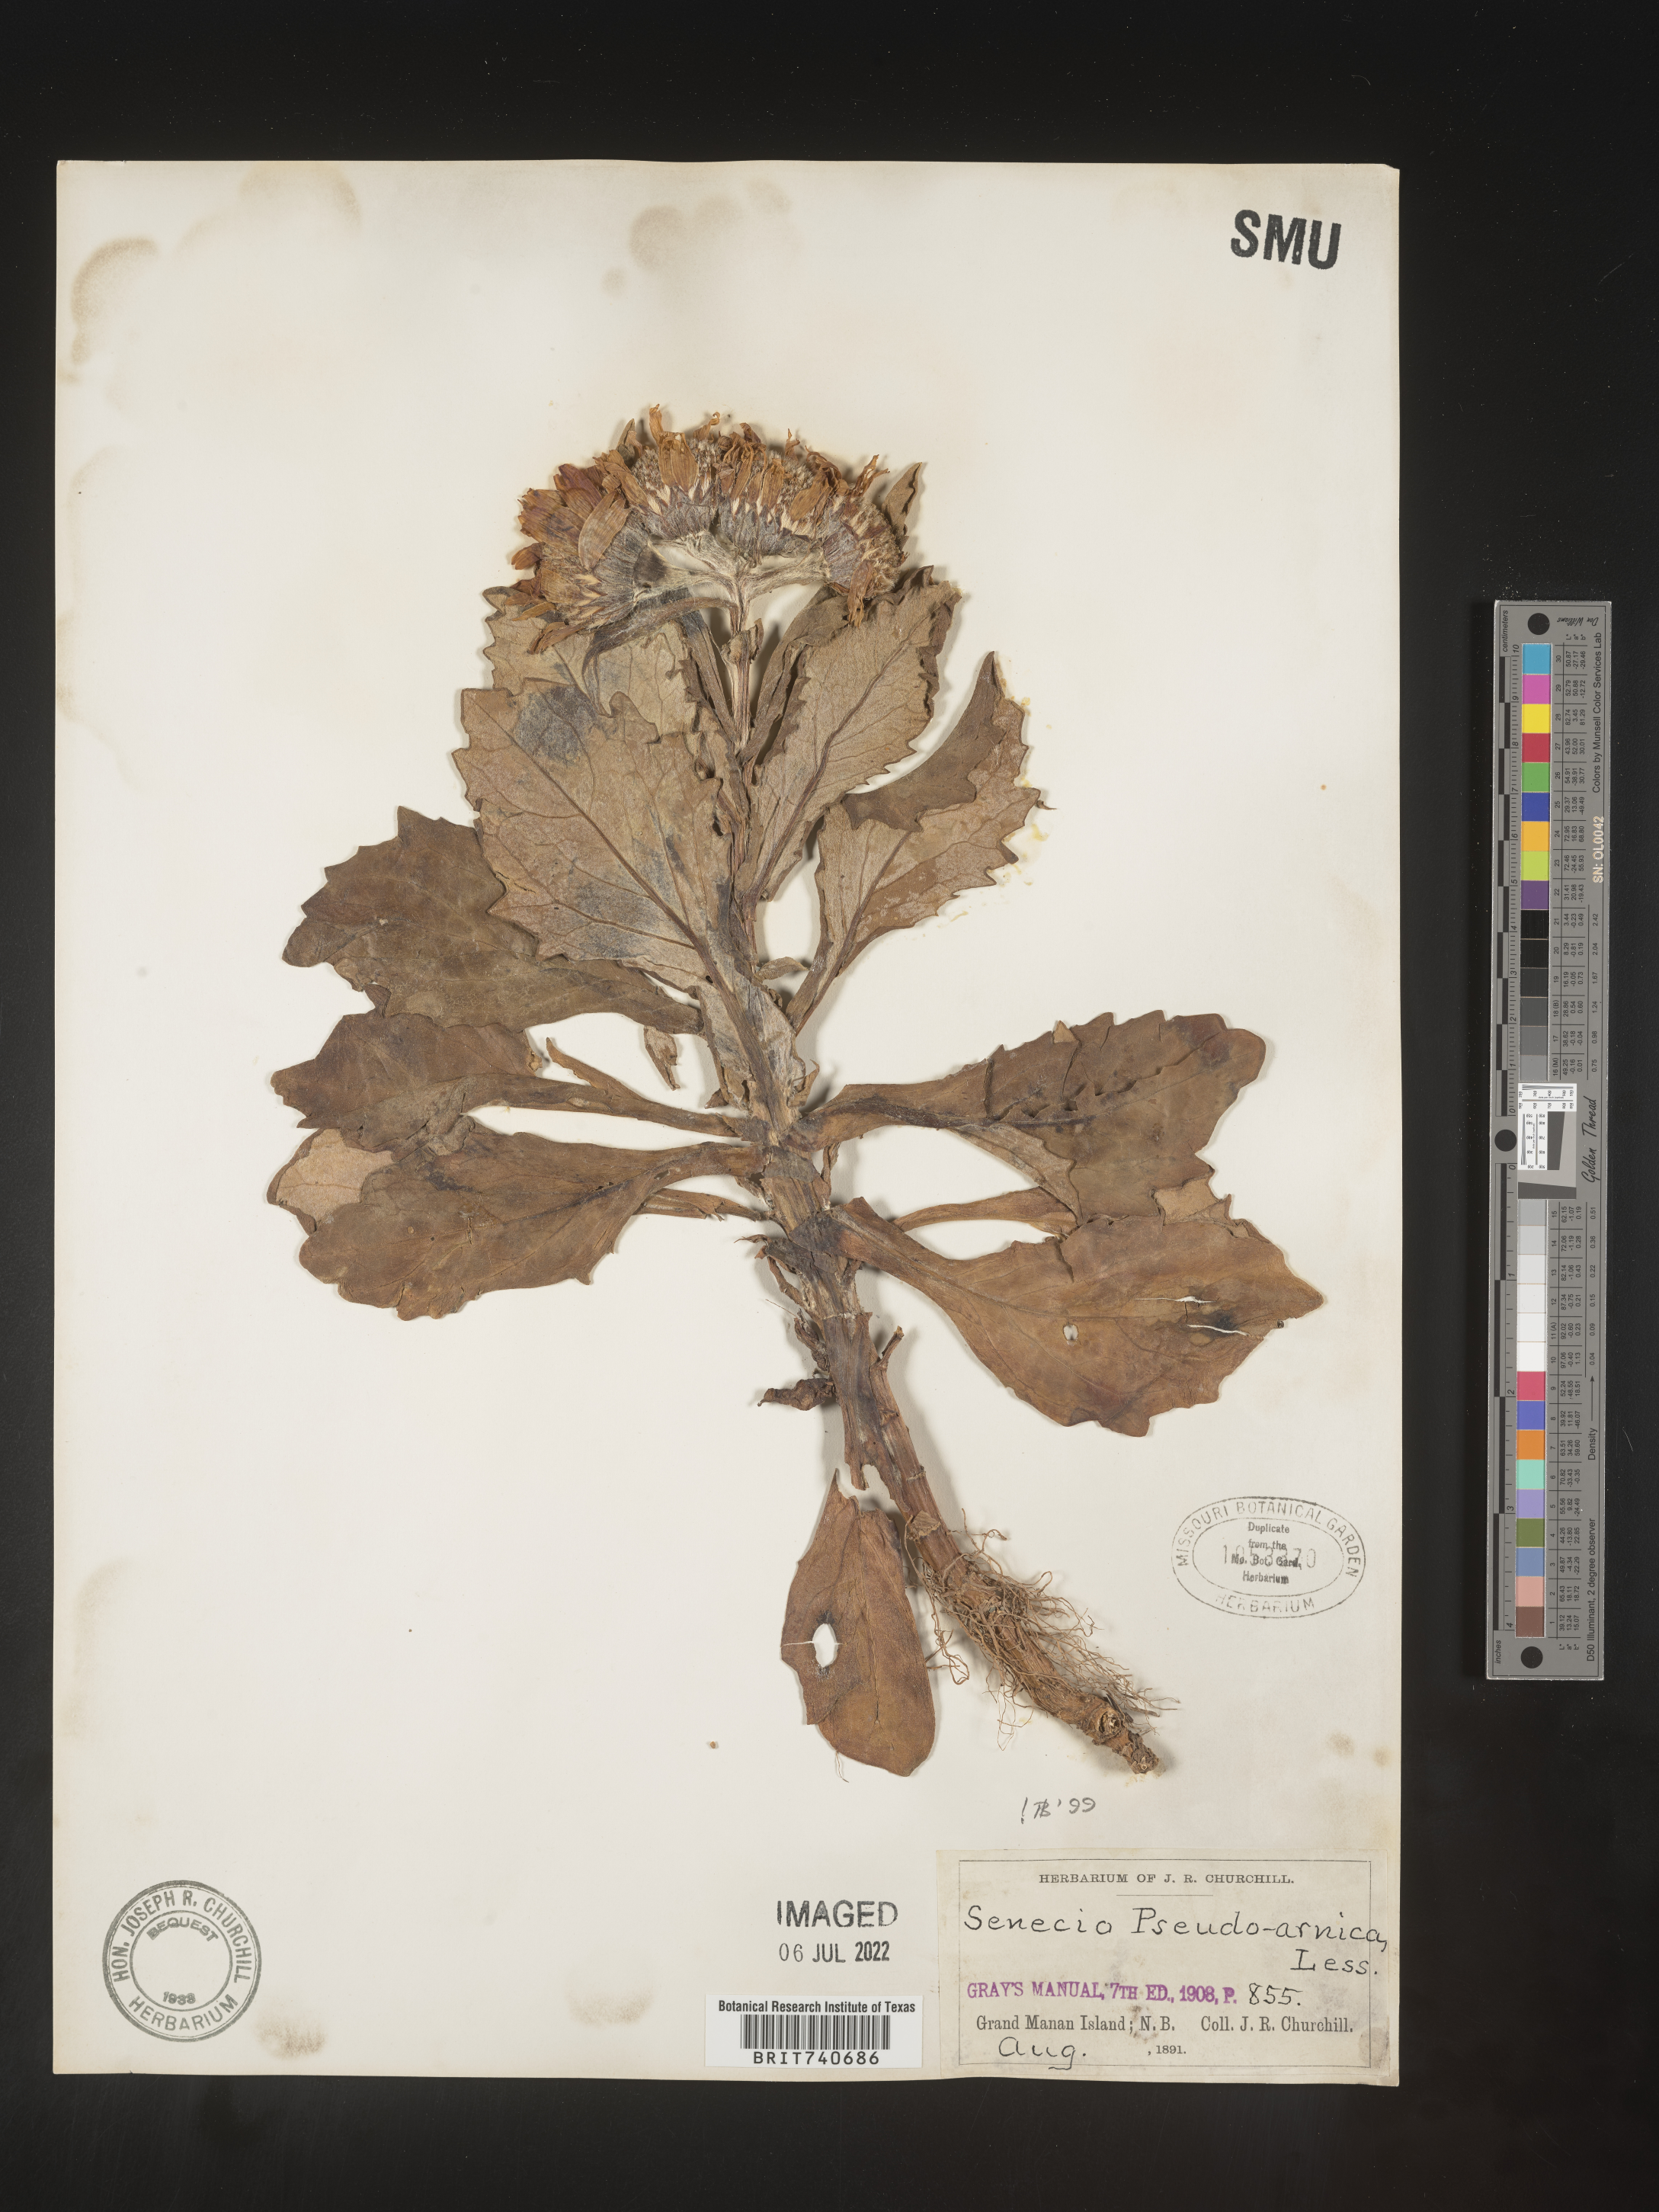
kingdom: Plantae
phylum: Tracheophyta
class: Magnoliopsida
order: Asterales
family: Asteraceae
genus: Jacobaea
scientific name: Jacobaea pseudoarnica
